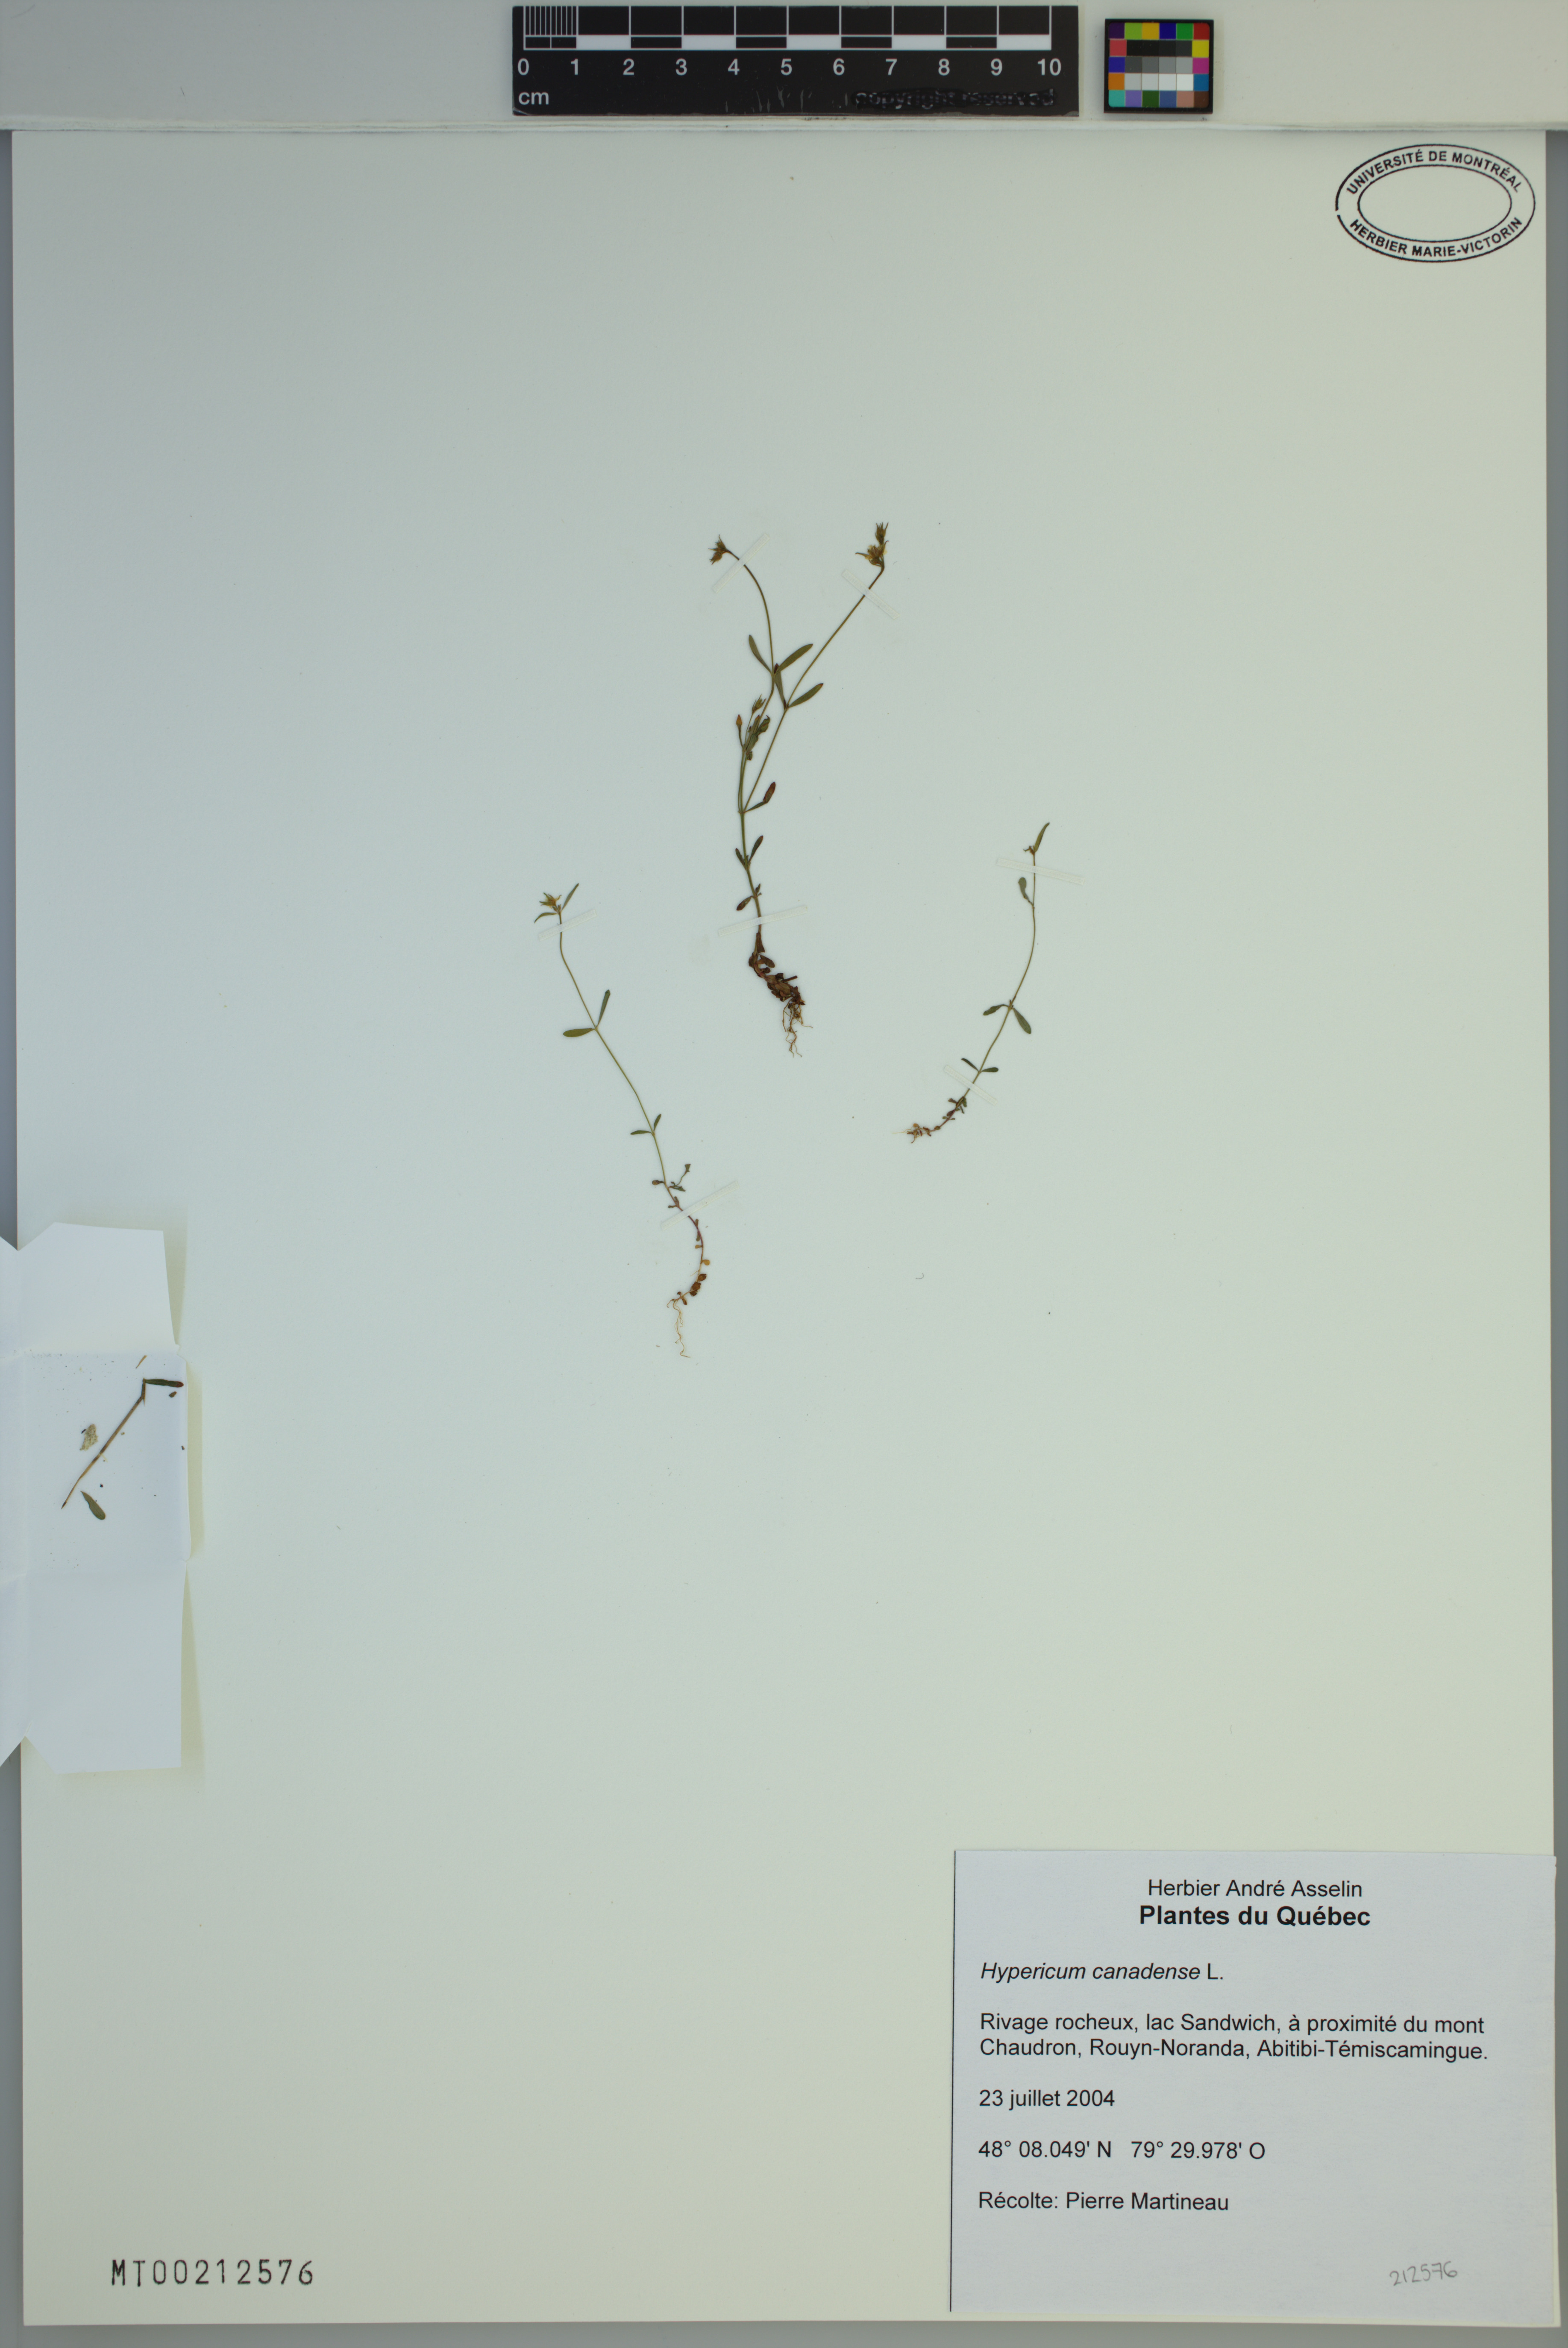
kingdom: Plantae
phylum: Tracheophyta
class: Magnoliopsida
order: Malpighiales
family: Hypericaceae
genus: Hypericum
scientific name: Hypericum canadense
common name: Irish st. john's-wort
